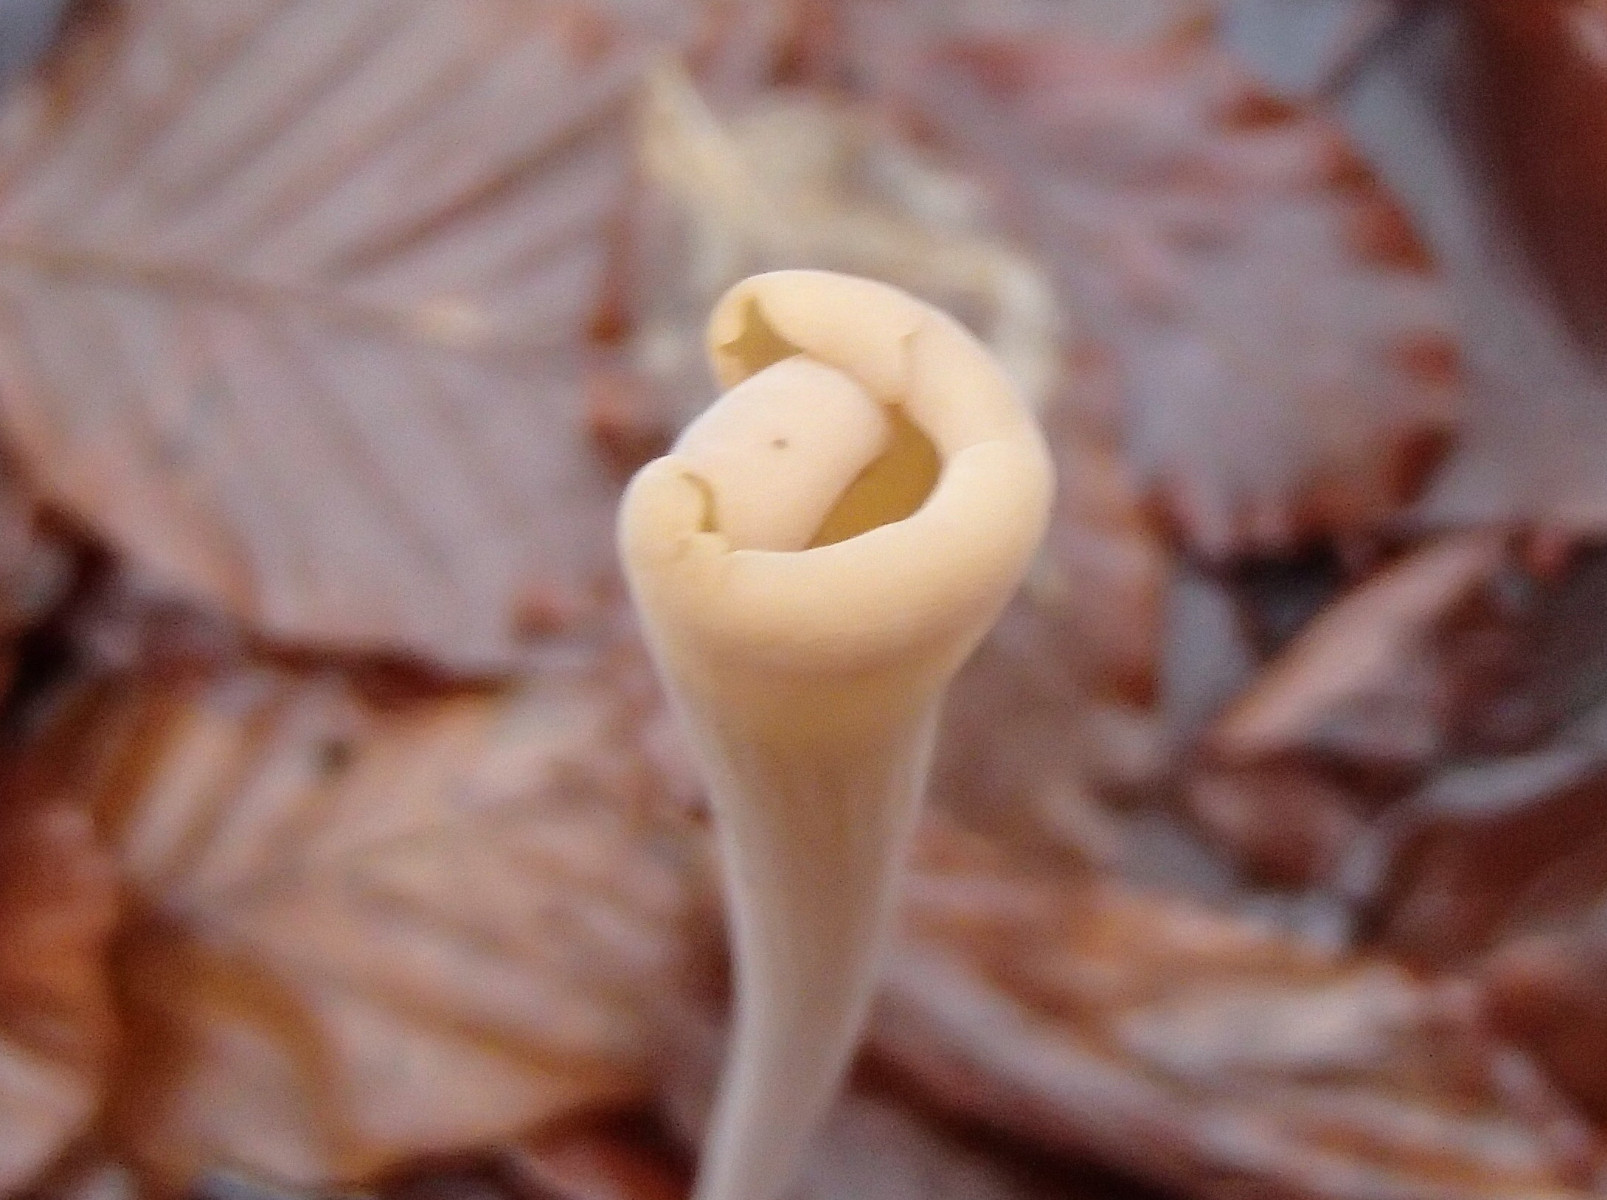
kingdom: Fungi
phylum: Basidiomycota
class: Agaricomycetes
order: Agaricales
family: Typhulaceae
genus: Typhula
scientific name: Typhula fistulosa
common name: pibet rørkølle
